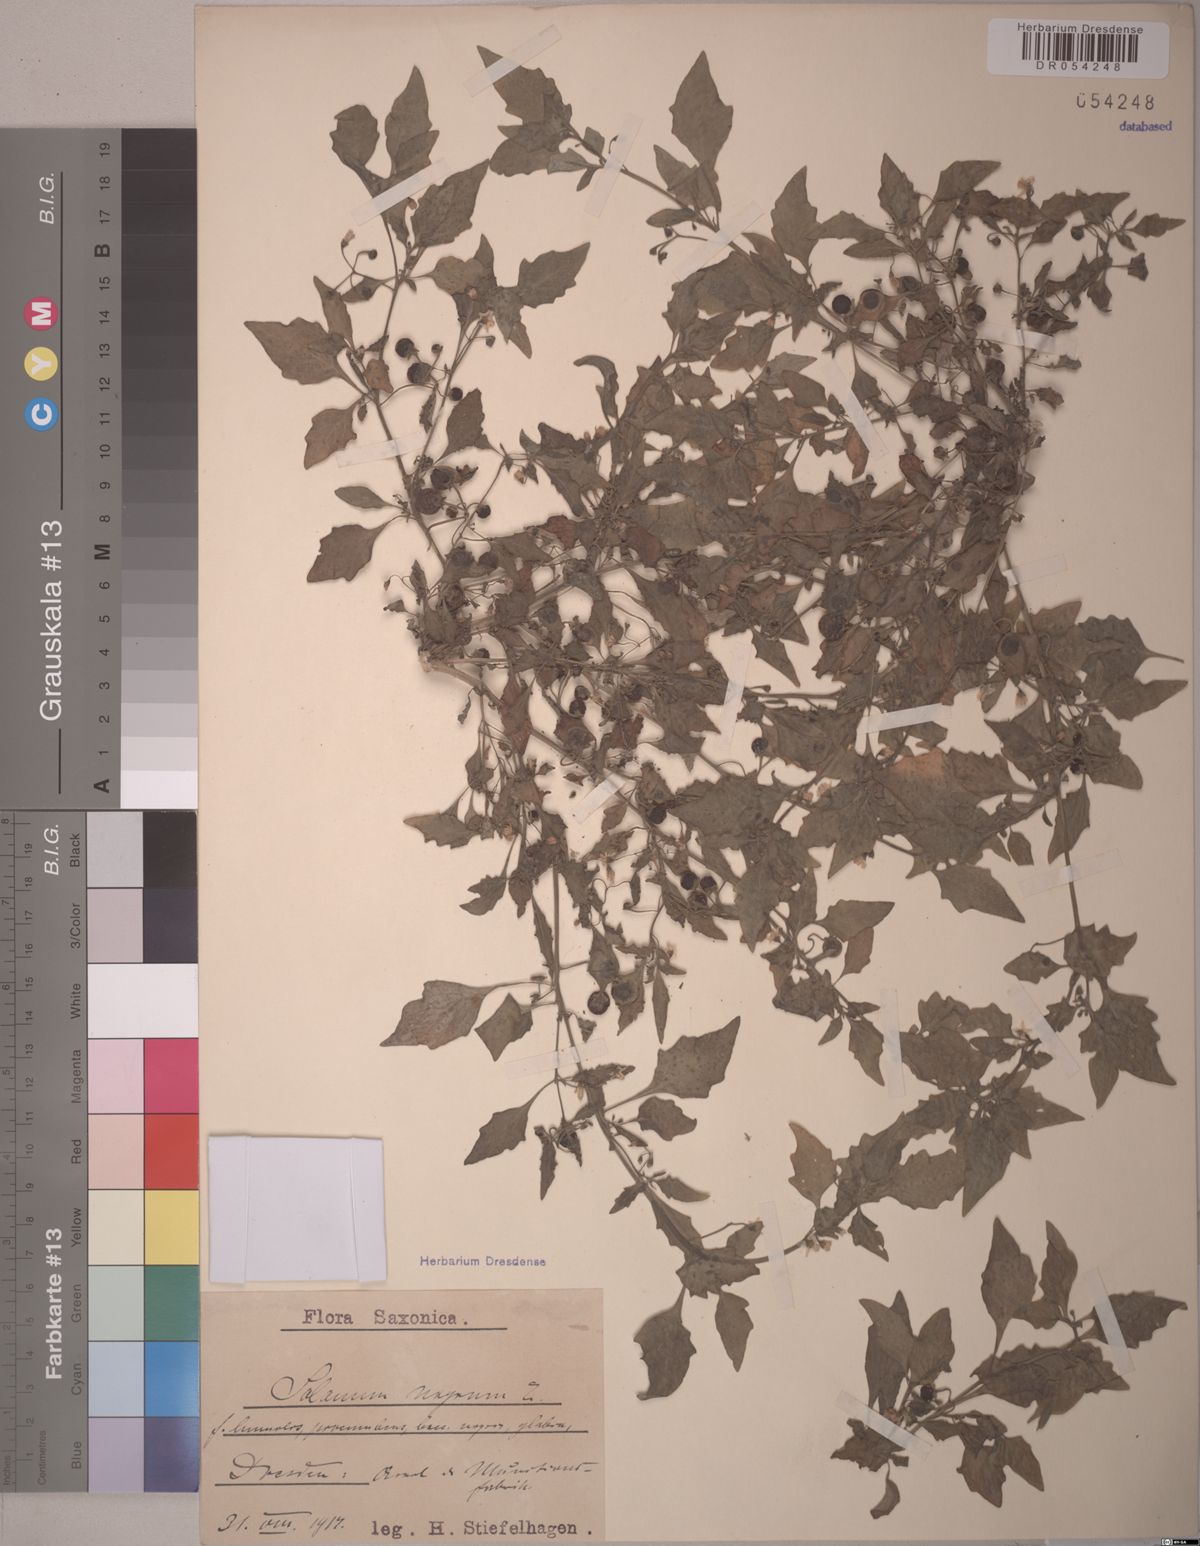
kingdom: Plantae
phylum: Tracheophyta
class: Magnoliopsida
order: Solanales
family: Solanaceae
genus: Solanum
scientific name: Solanum nigrum
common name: Black nightshade
